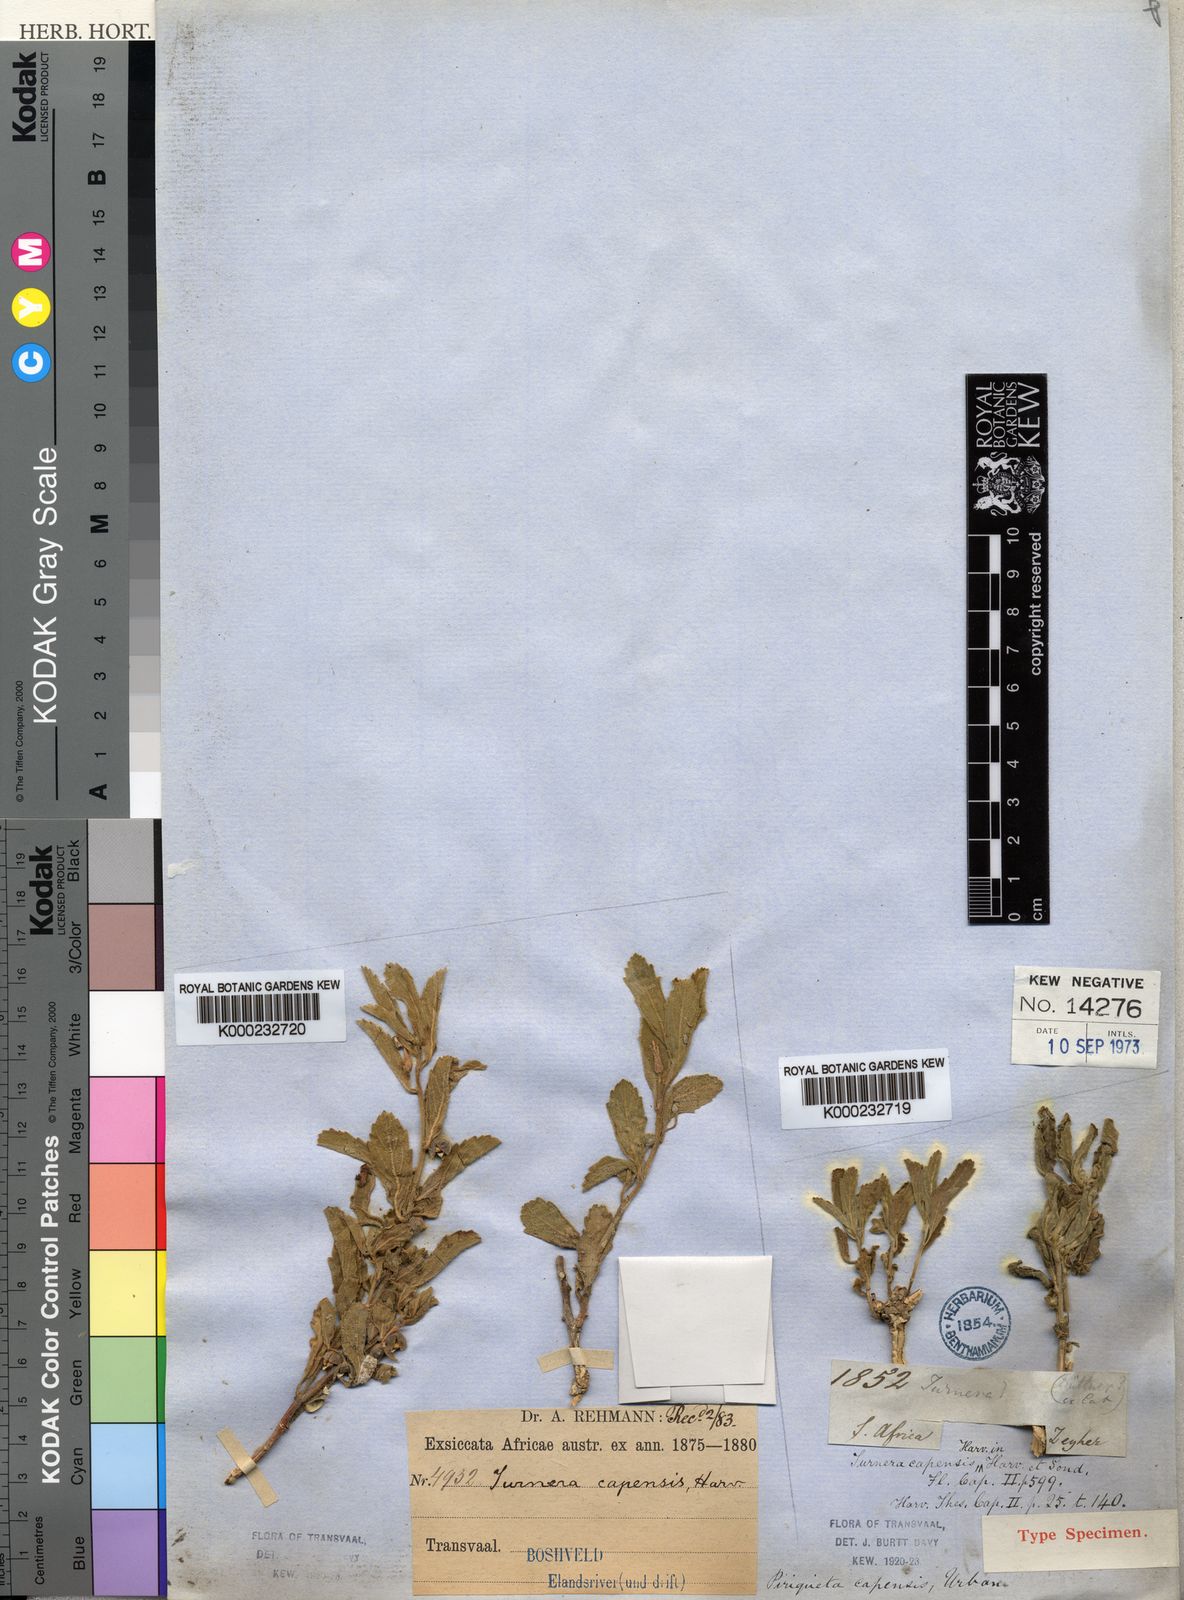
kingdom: Plantae
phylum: Tracheophyta
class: Magnoliopsida
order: Malpighiales
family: Turneraceae
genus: Afroqueta
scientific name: Afroqueta capensis
